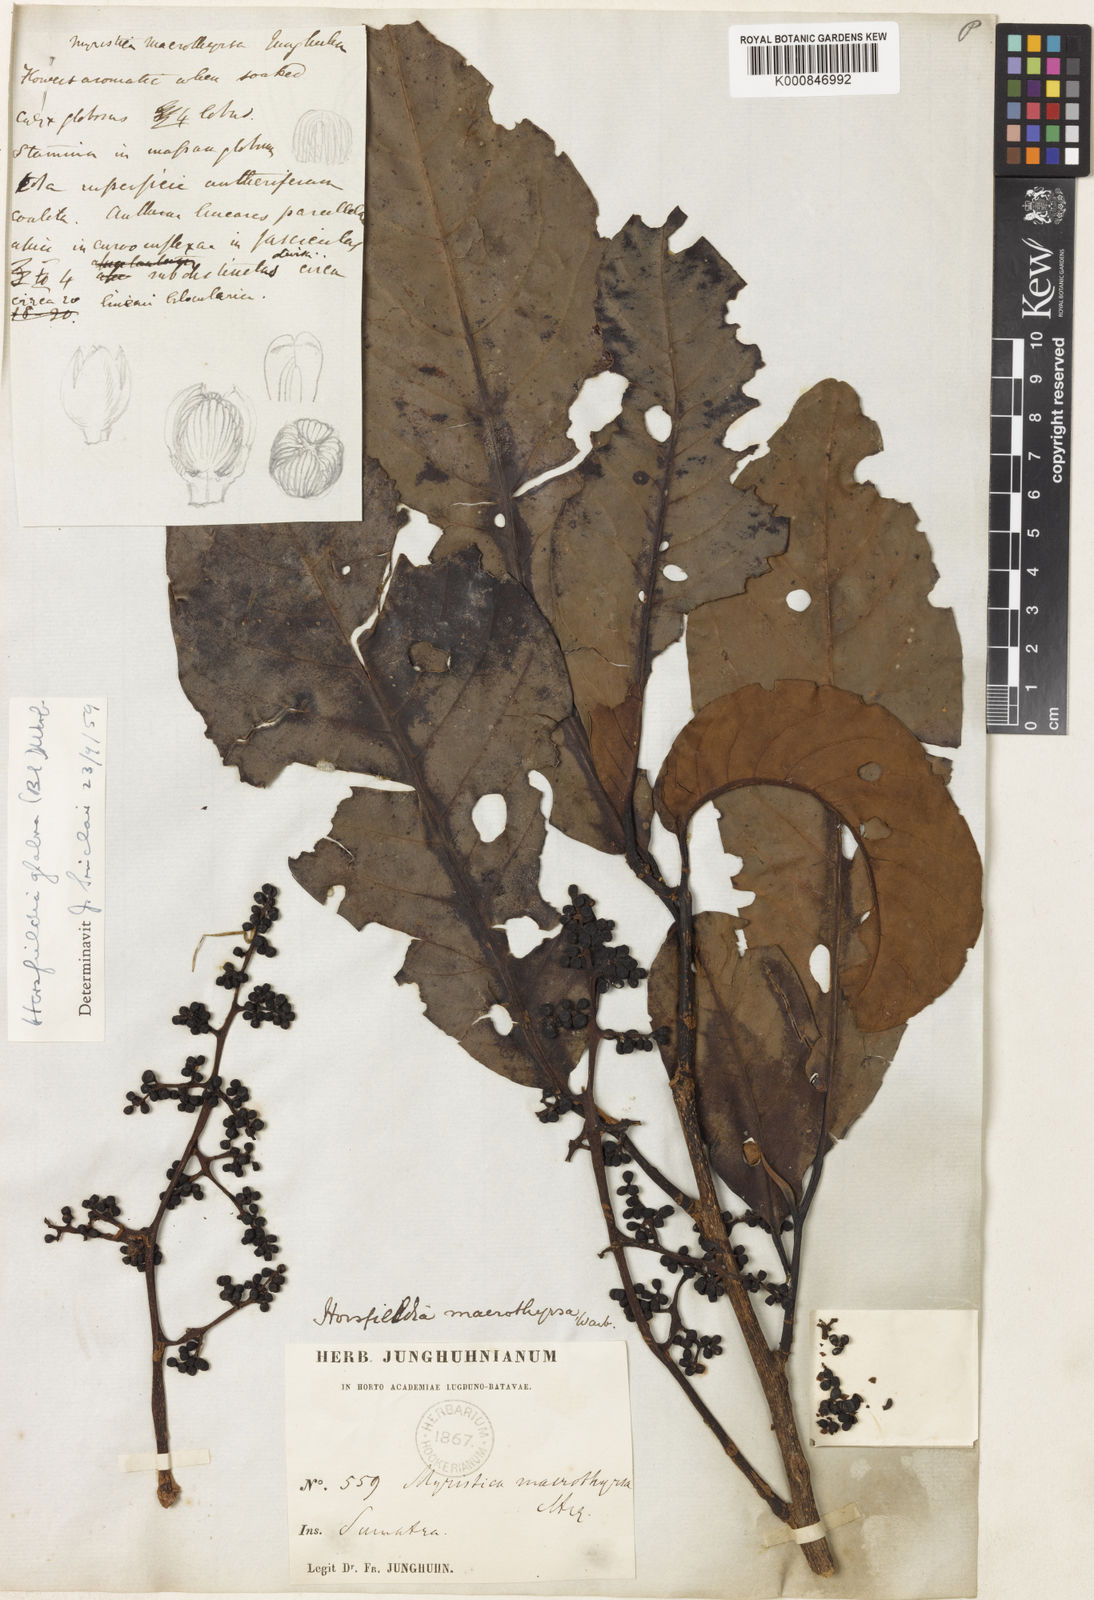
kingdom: Plantae
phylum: Tracheophyta
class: Magnoliopsida
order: Magnoliales
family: Myristicaceae
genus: Horsfieldia
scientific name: Horsfieldia glabra
